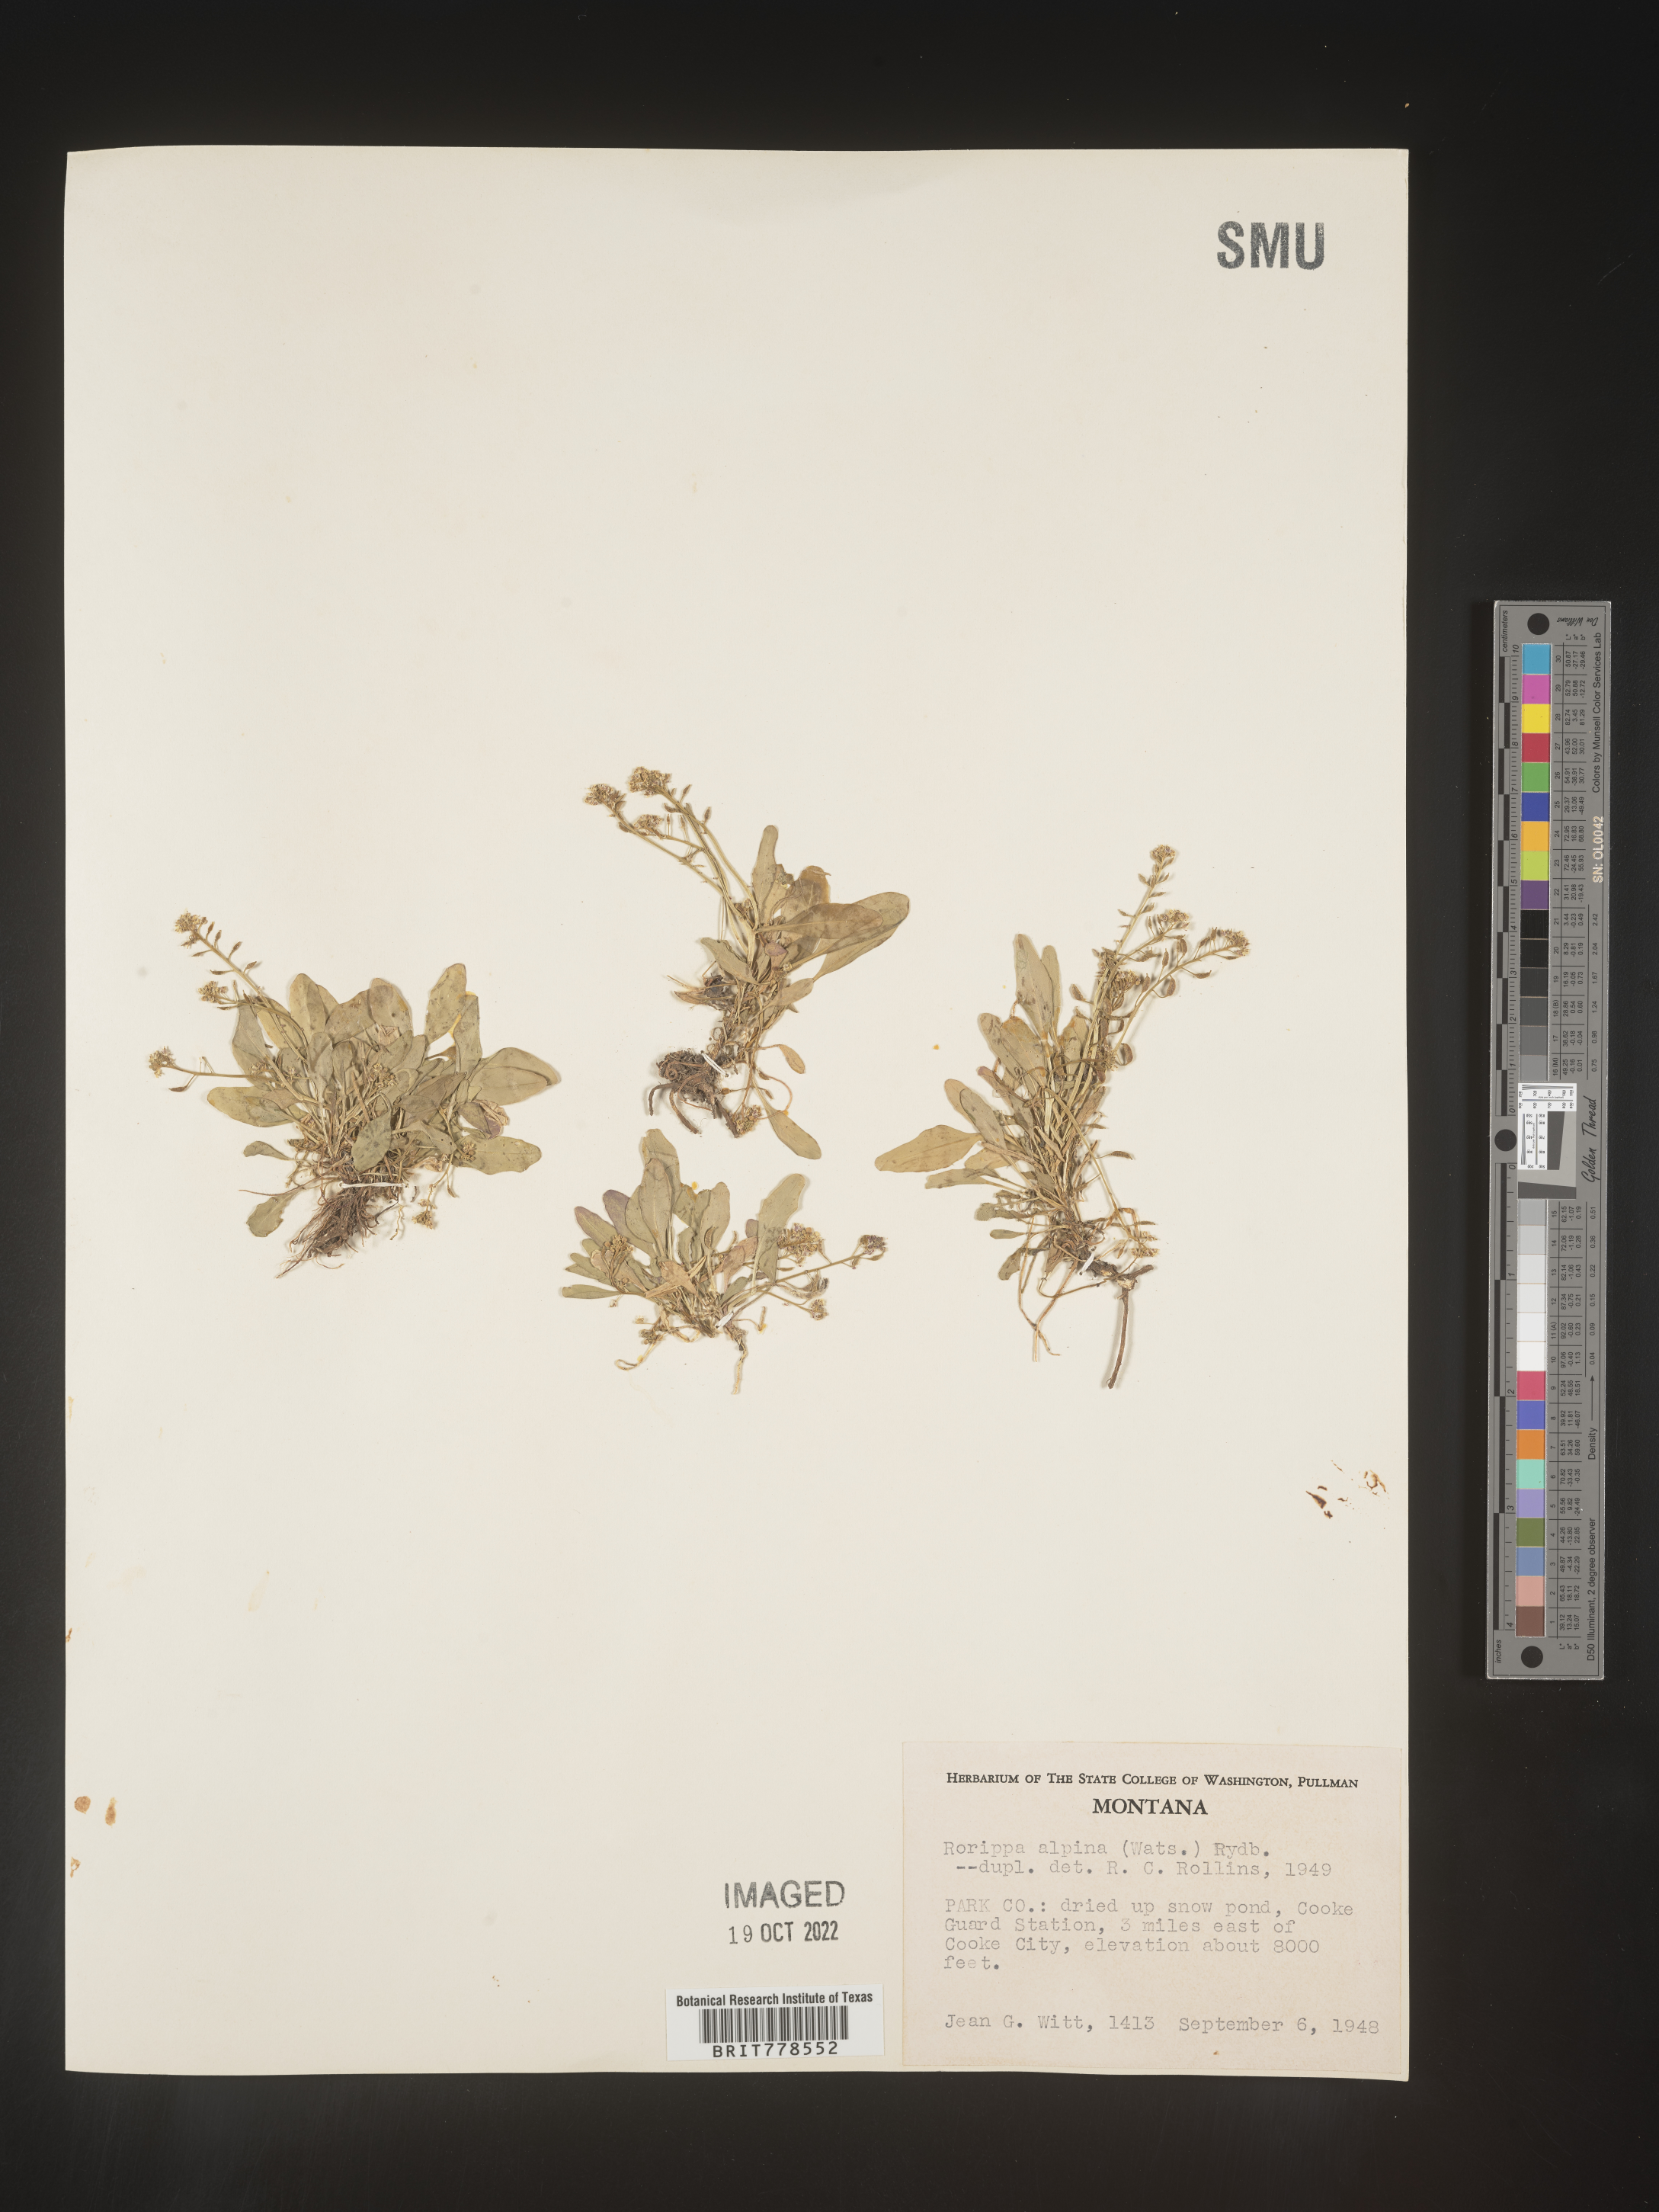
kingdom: Plantae
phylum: Tracheophyta
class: Magnoliopsida
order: Brassicales
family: Brassicaceae
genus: Rorippa
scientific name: Rorippa
